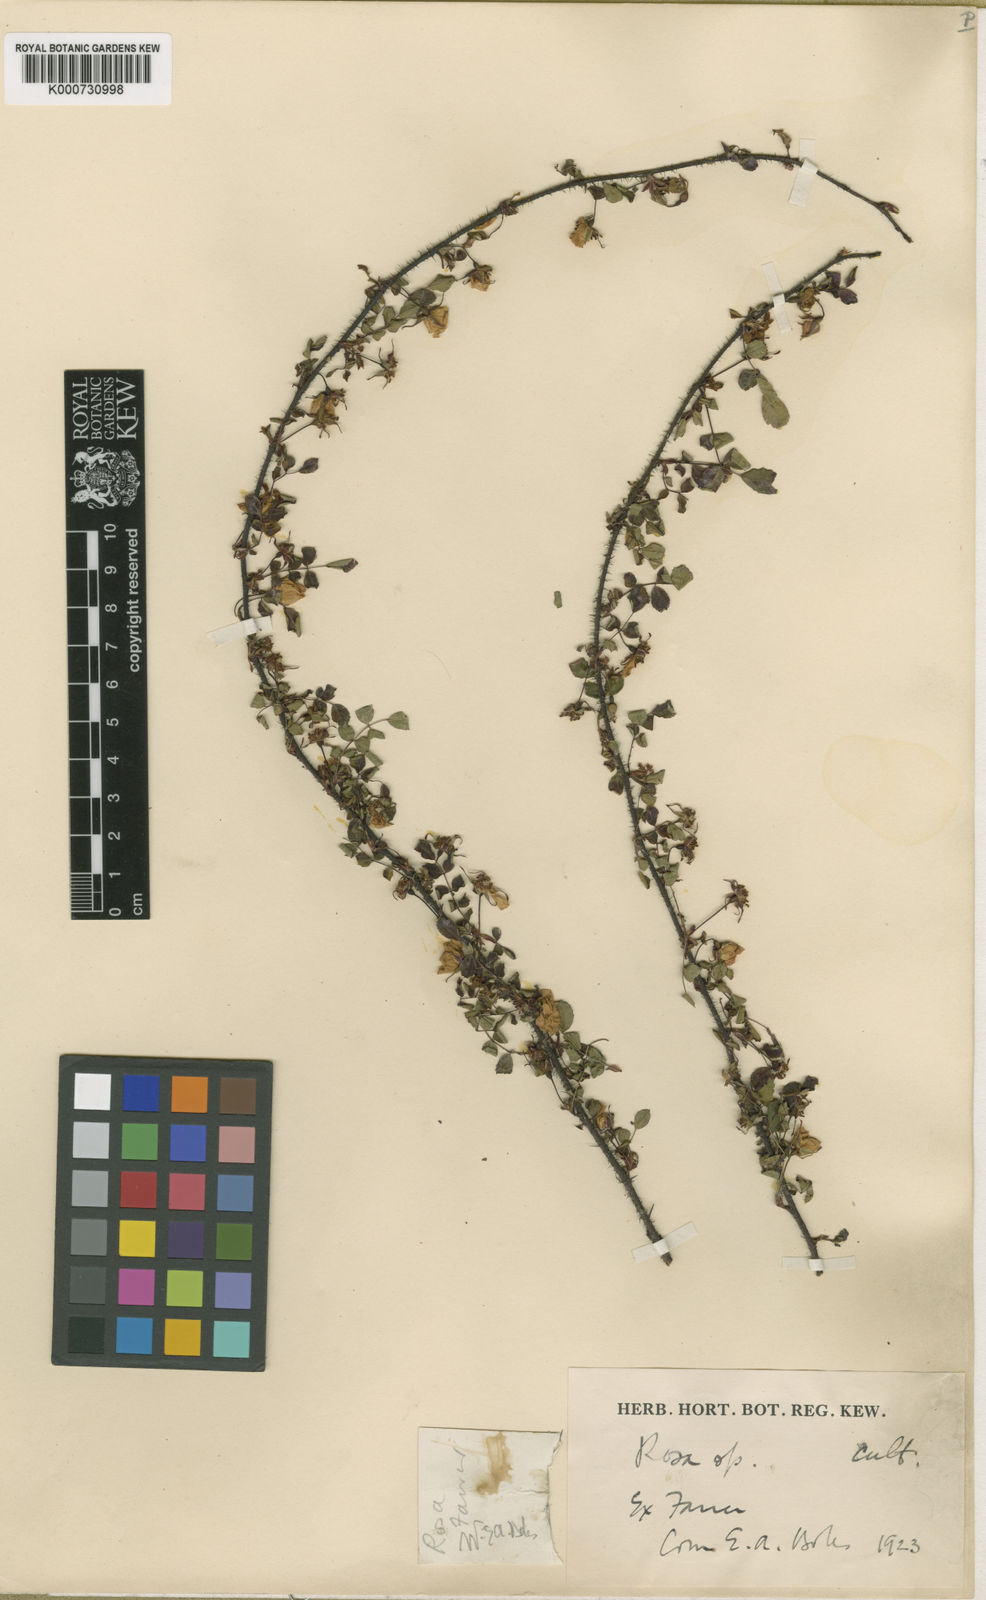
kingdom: Plantae
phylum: Tracheophyta
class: Magnoliopsida
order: Rosales
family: Rosaceae
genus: Rosa
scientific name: Rosa farreri
